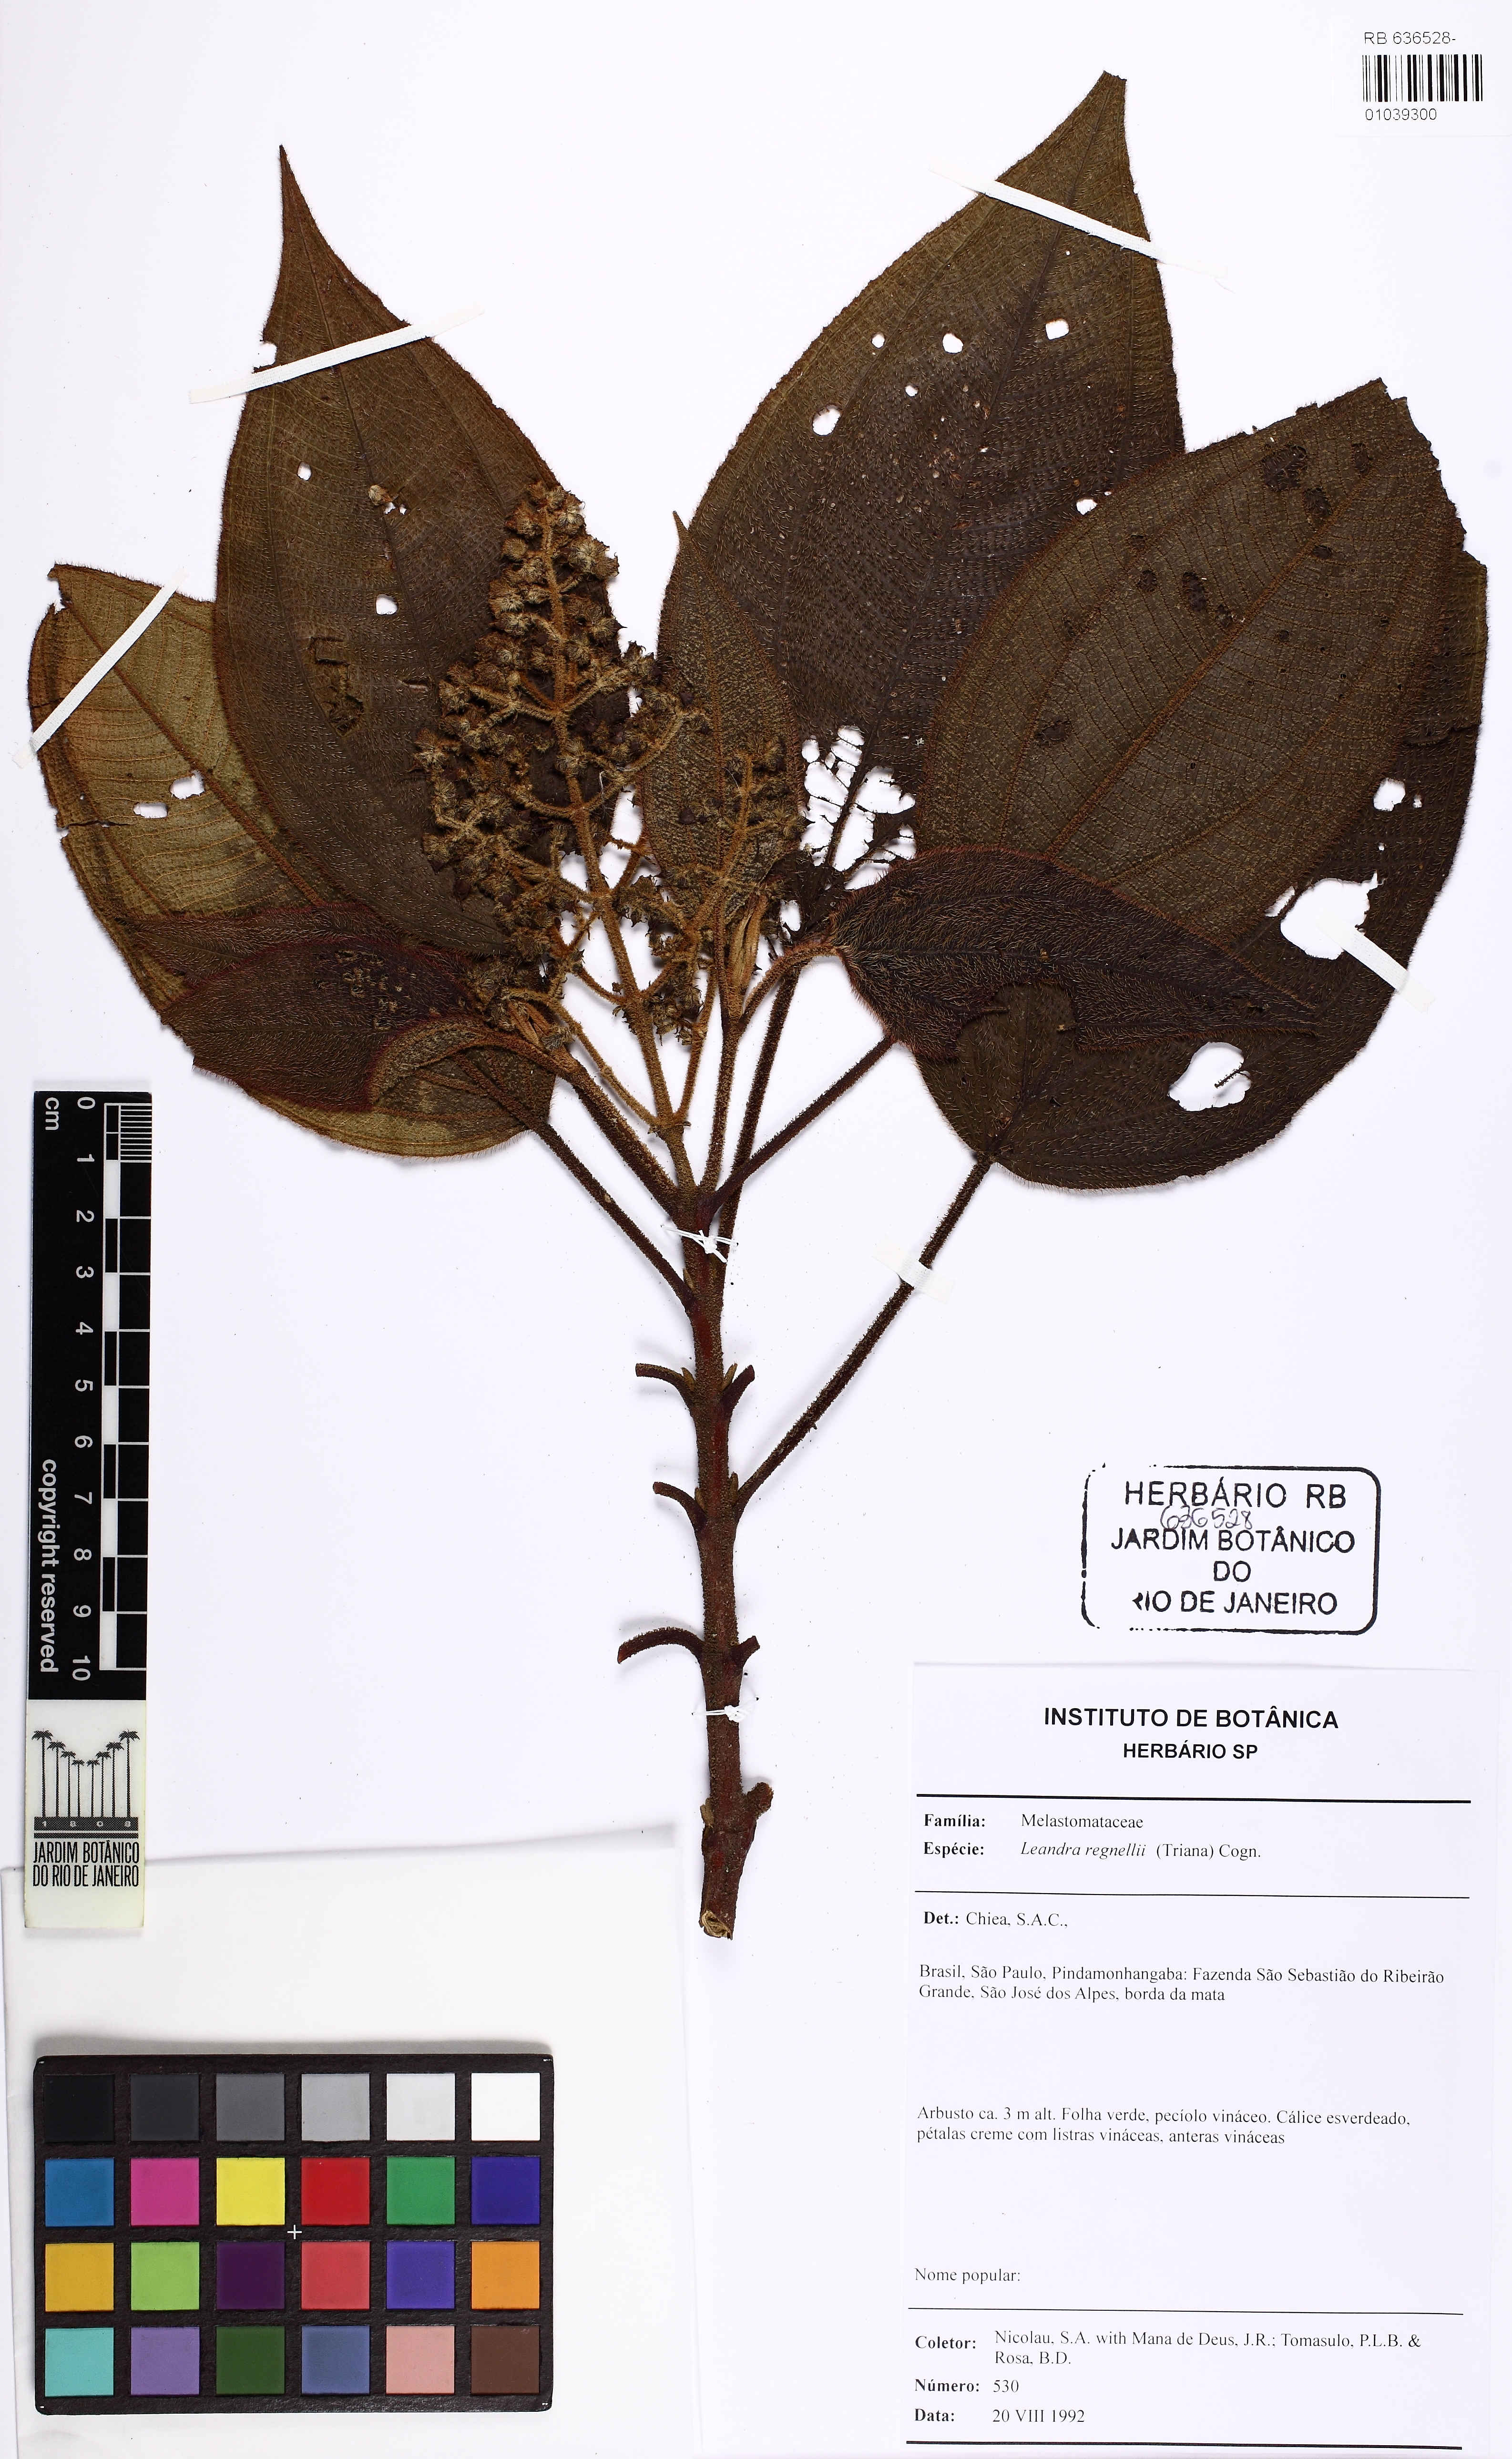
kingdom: Plantae
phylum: Tracheophyta
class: Magnoliopsida
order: Myrtales
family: Melastomataceae
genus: Miconia
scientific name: Miconia alterninervia
